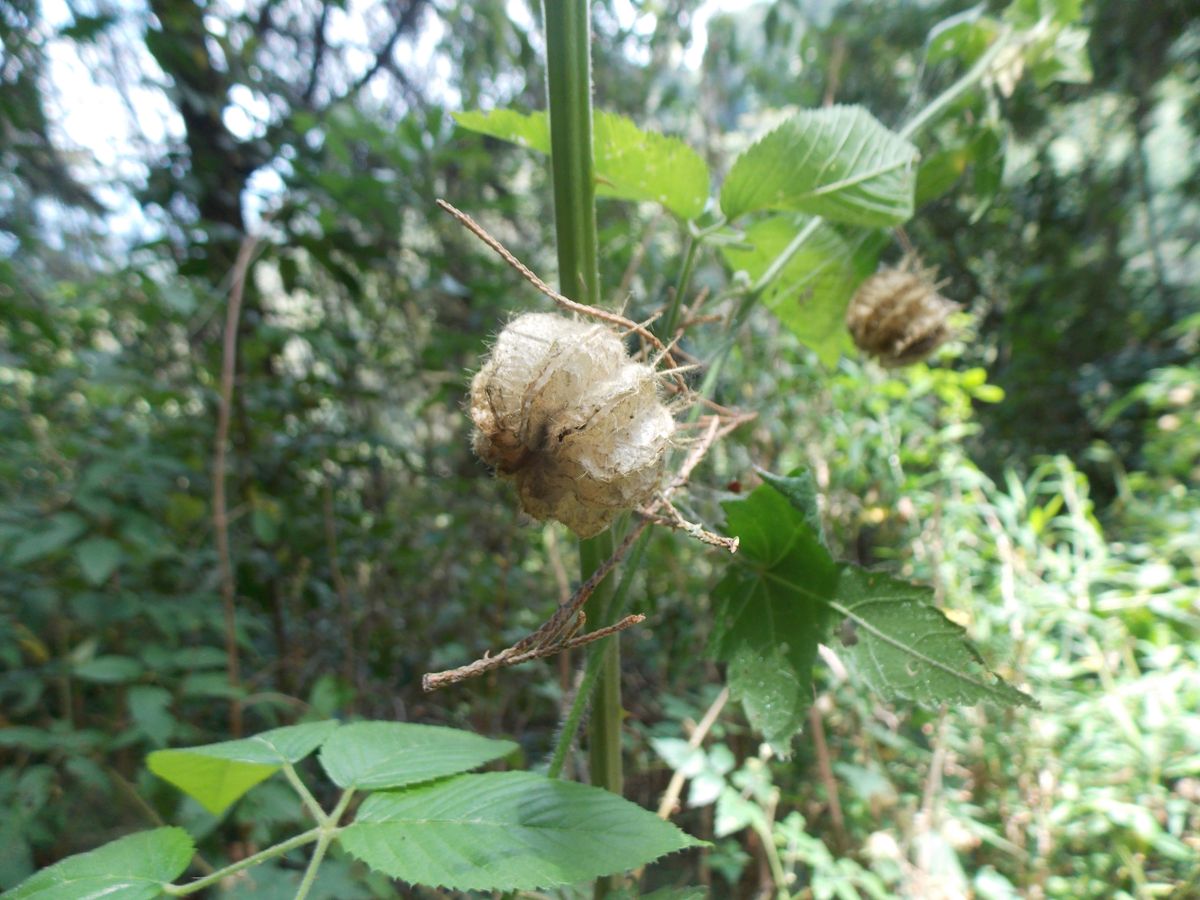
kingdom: Plantae
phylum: Tracheophyta
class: Magnoliopsida
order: Malvales
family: Malvaceae
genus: Neobrittonia
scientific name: Neobrittonia acerifolia
